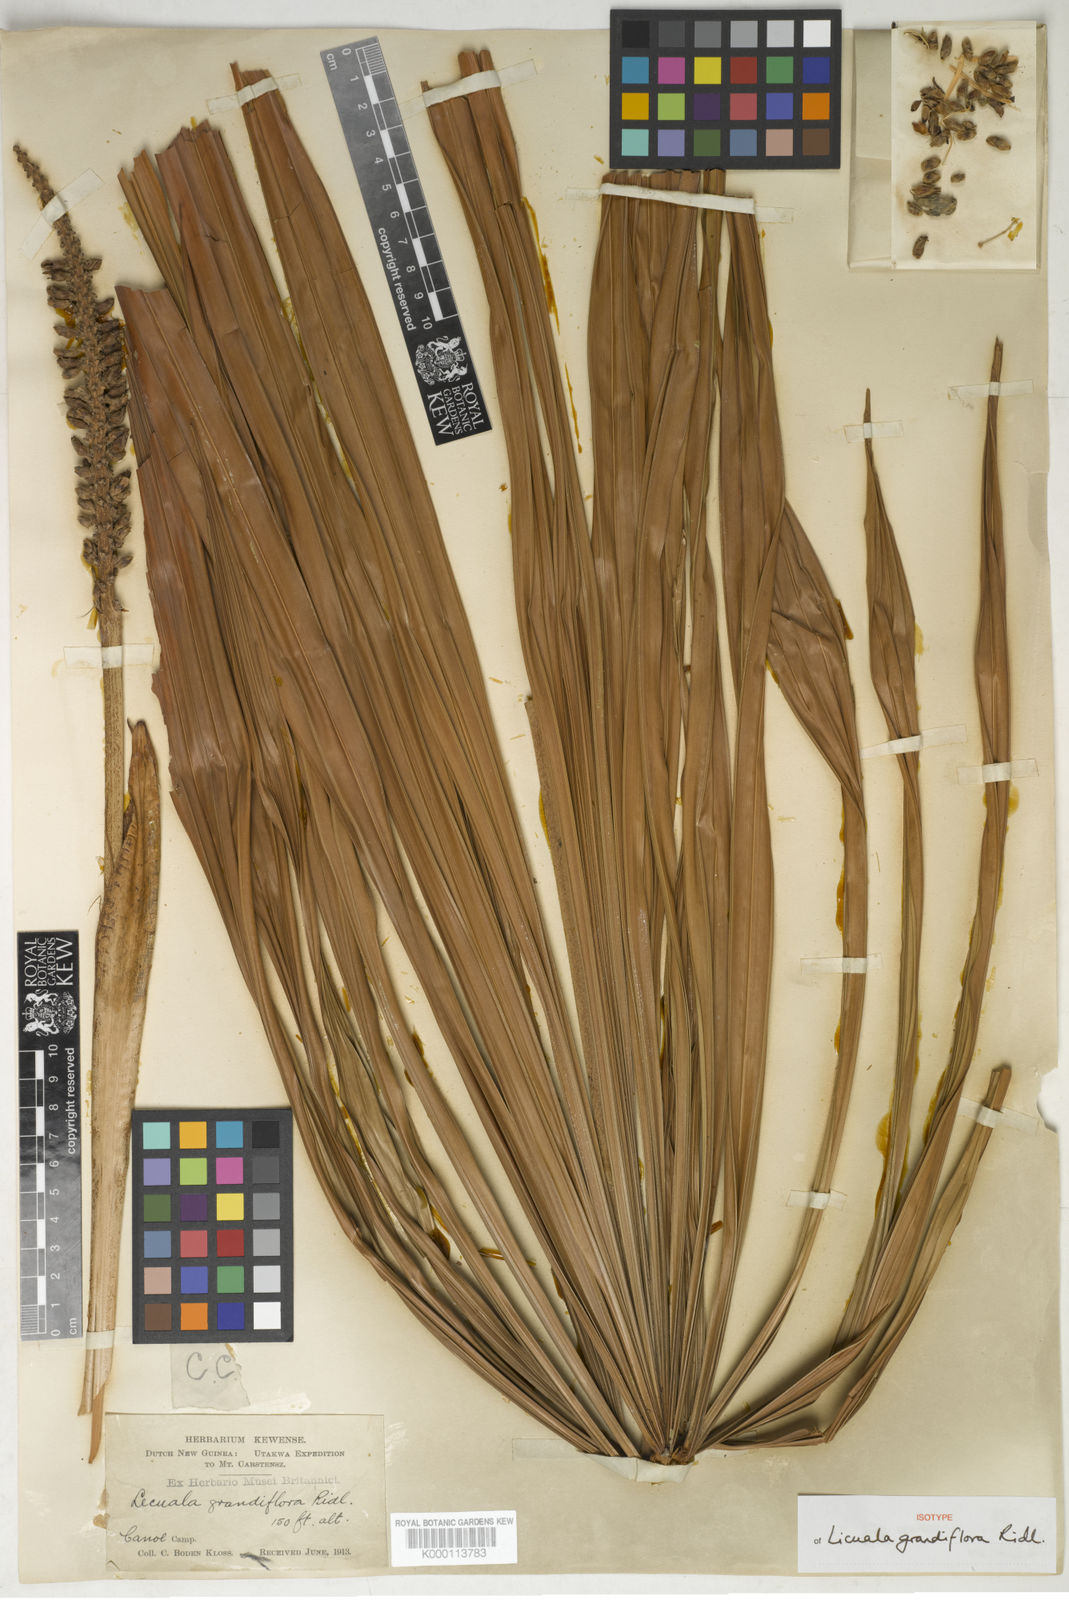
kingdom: Plantae
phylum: Tracheophyta
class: Liliopsida
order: Arecales
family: Arecaceae
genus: Licuala
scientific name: Licuala grandiflora
